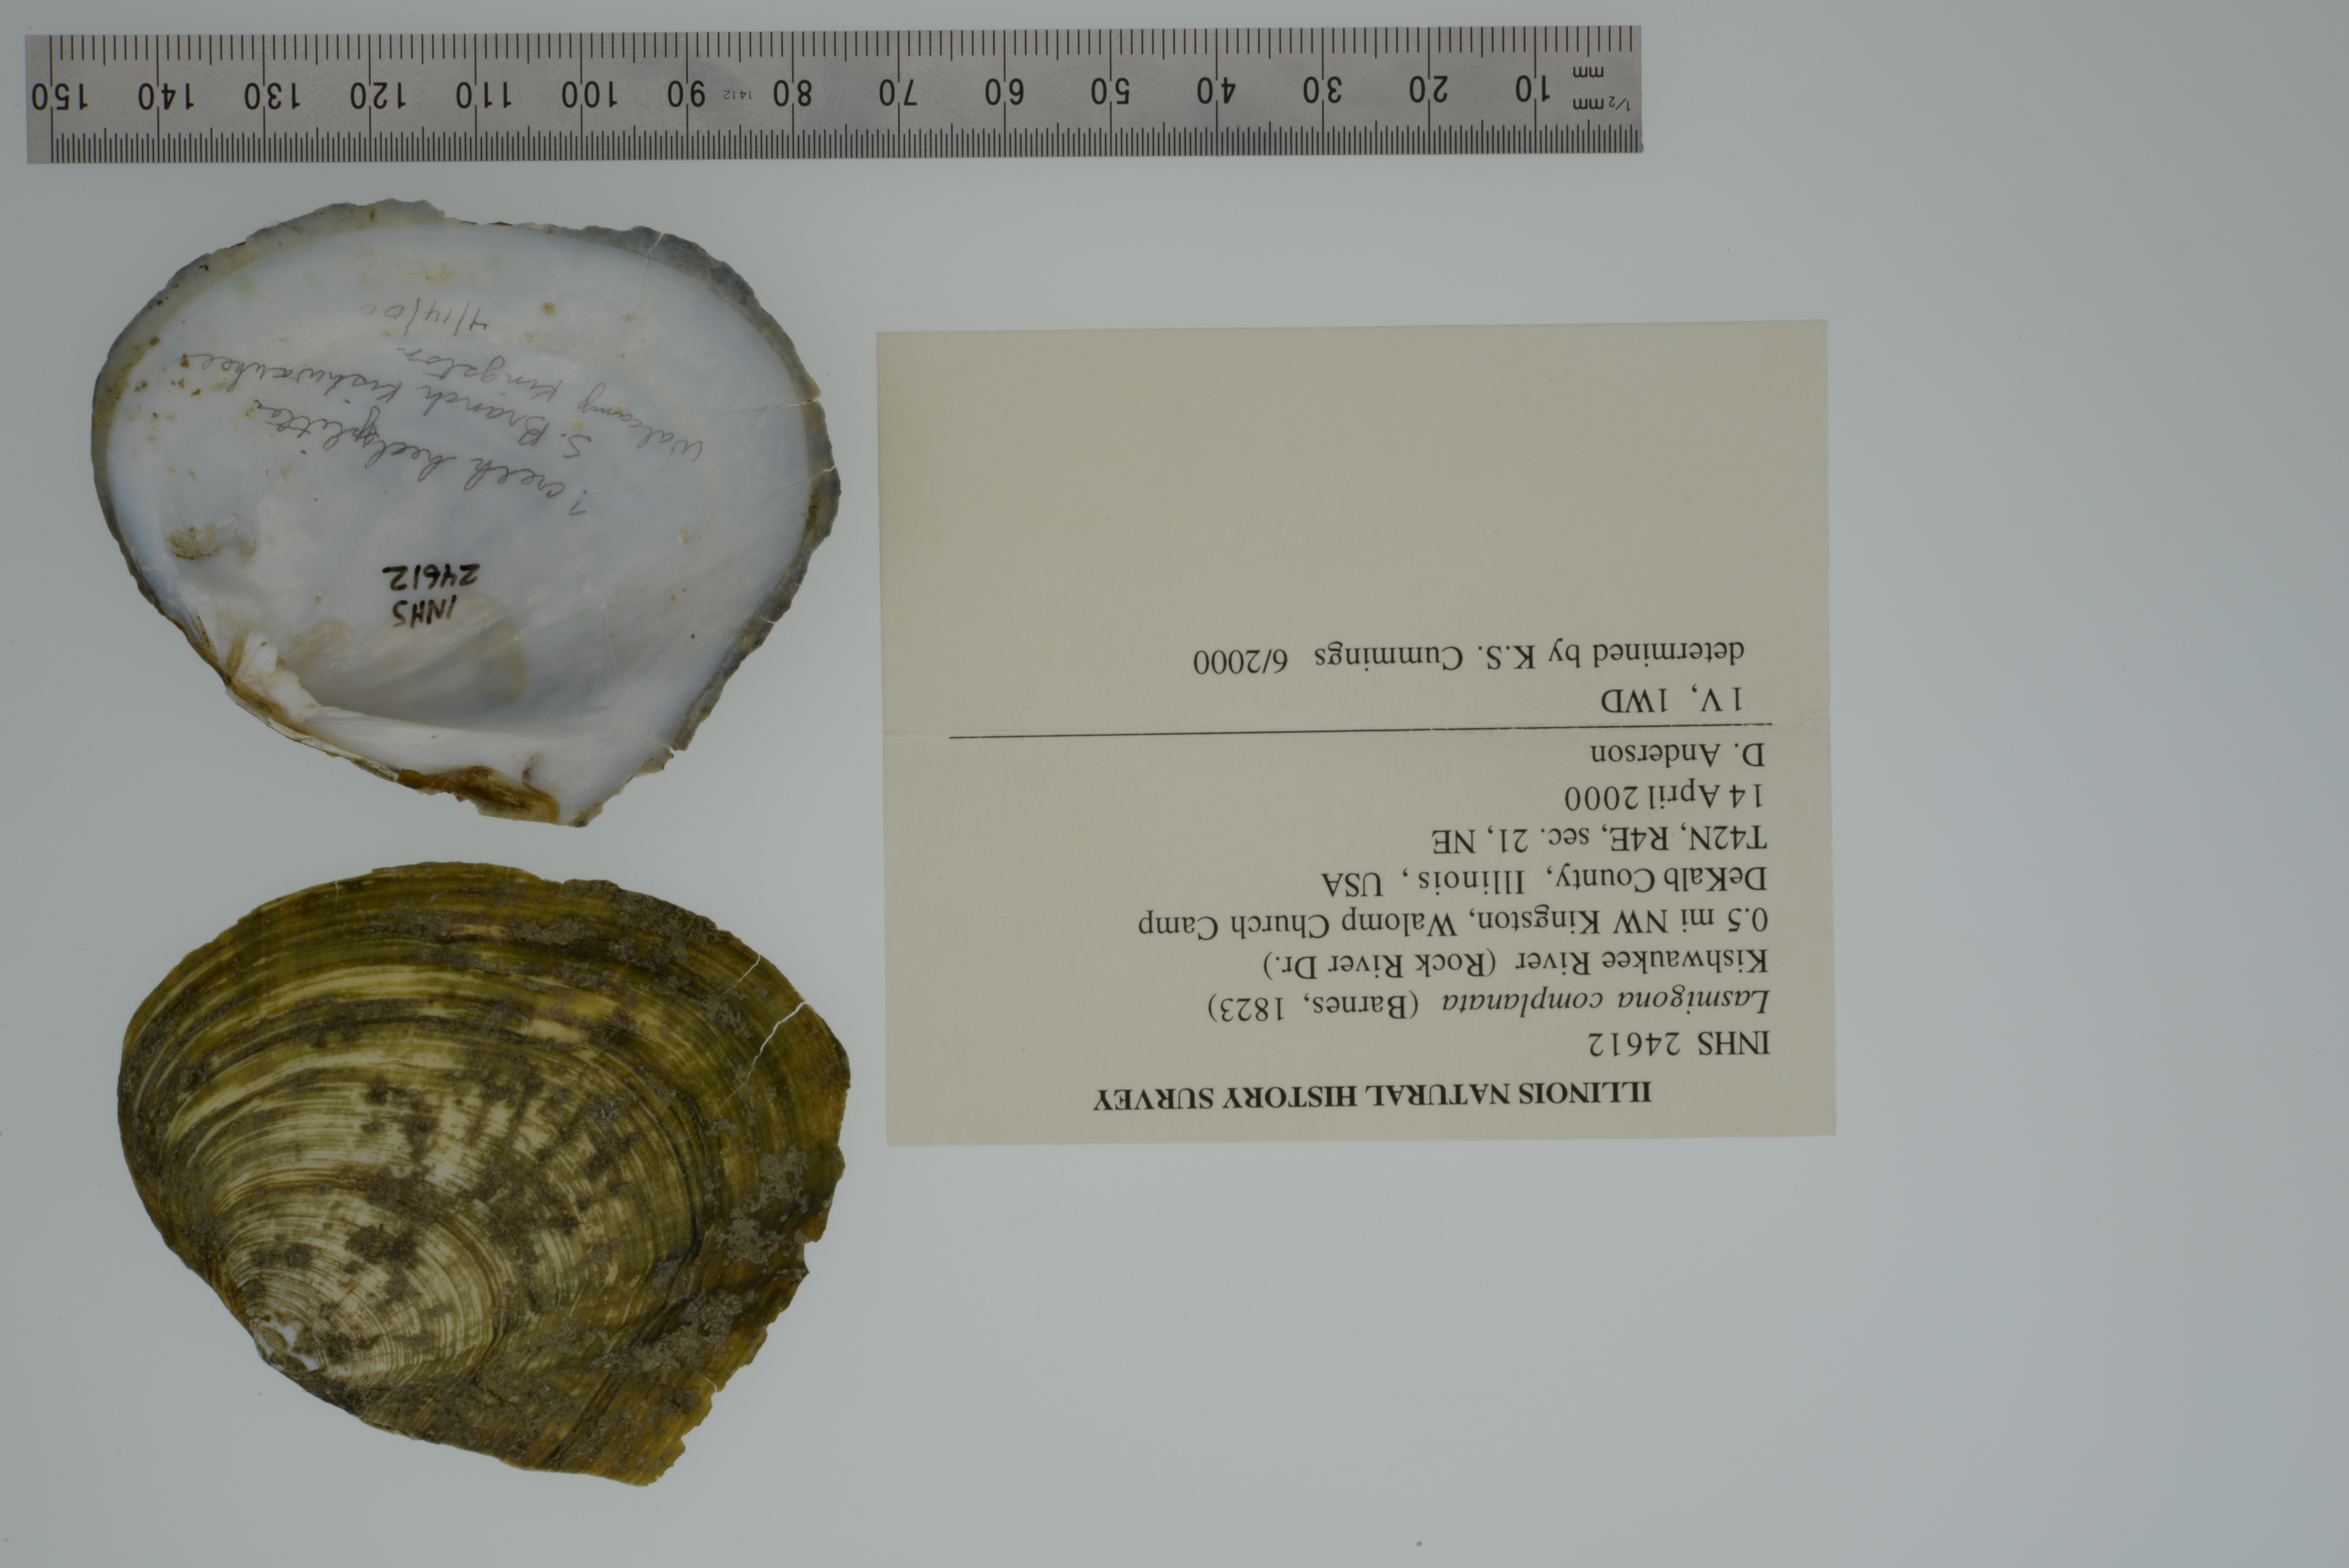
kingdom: Animalia
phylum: Mollusca
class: Bivalvia
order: Unionida
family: Unionidae
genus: Lasmigona
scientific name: Lasmigona complanata
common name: White heelsplitter
